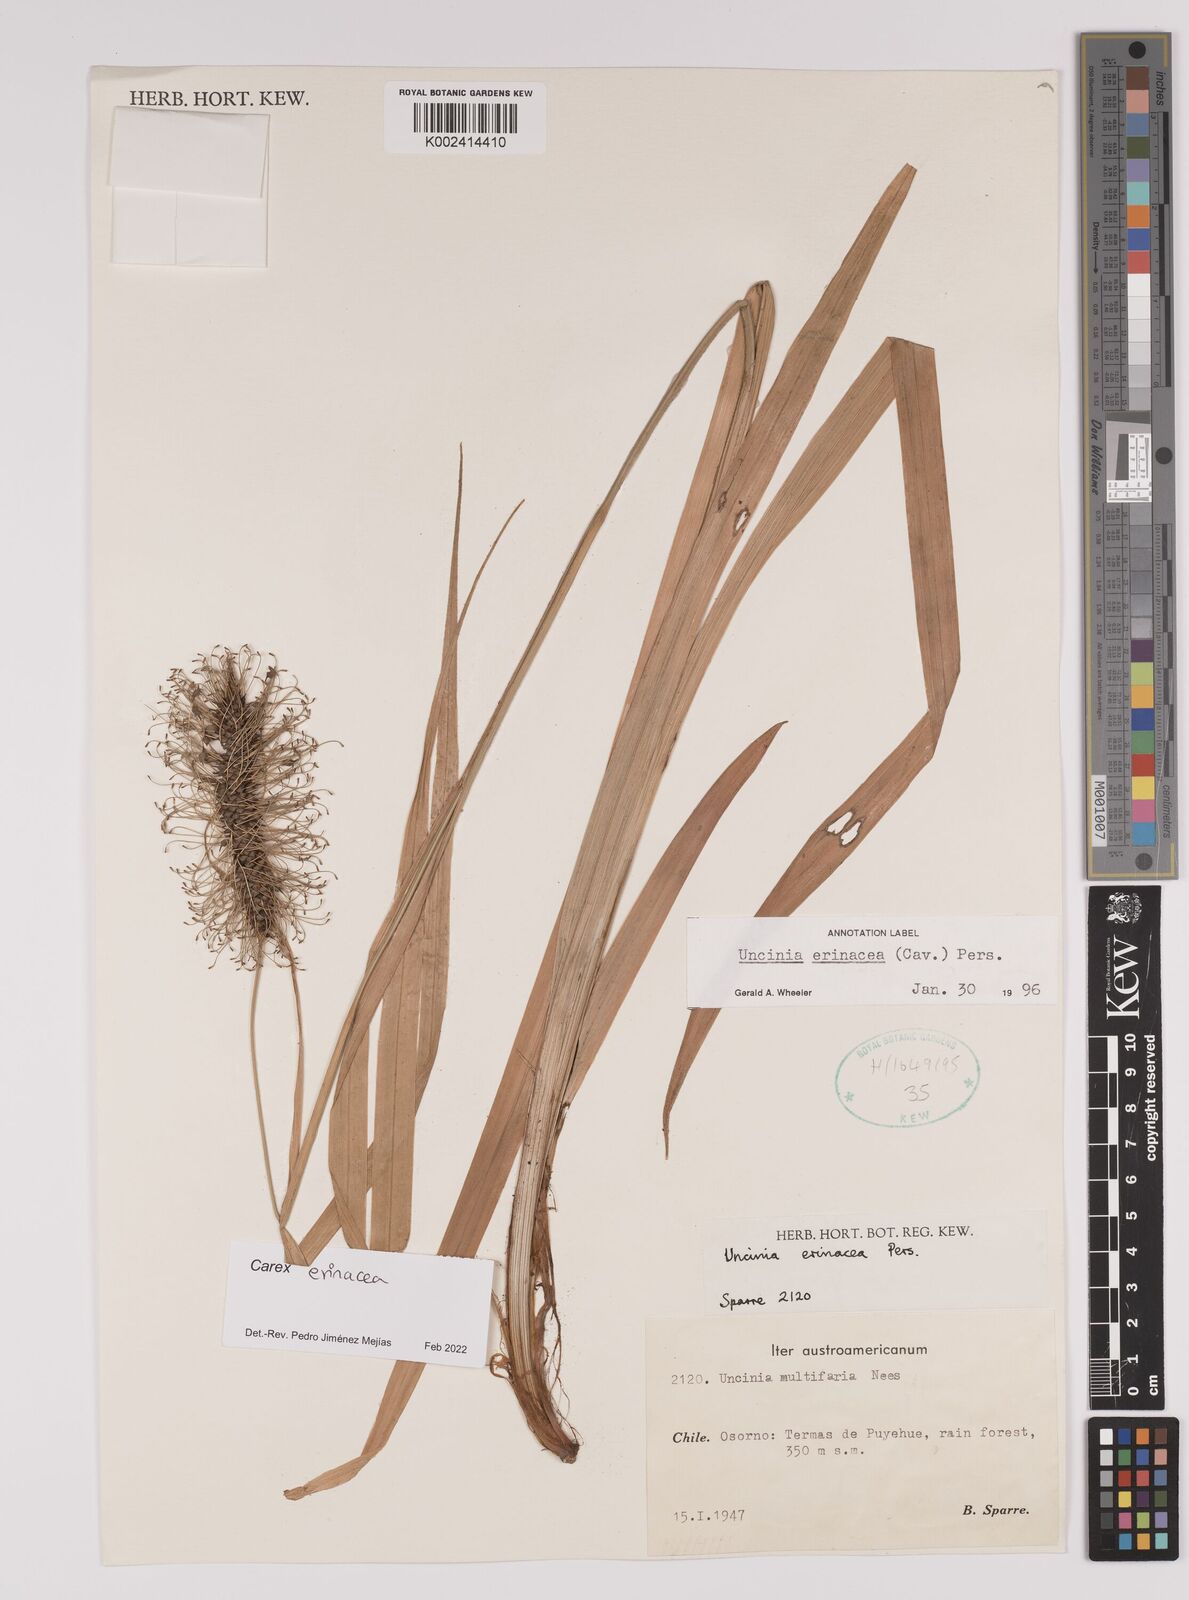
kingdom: Plantae
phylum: Tracheophyta
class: Liliopsida
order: Poales
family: Cyperaceae
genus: Carex
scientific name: Carex erinacea
